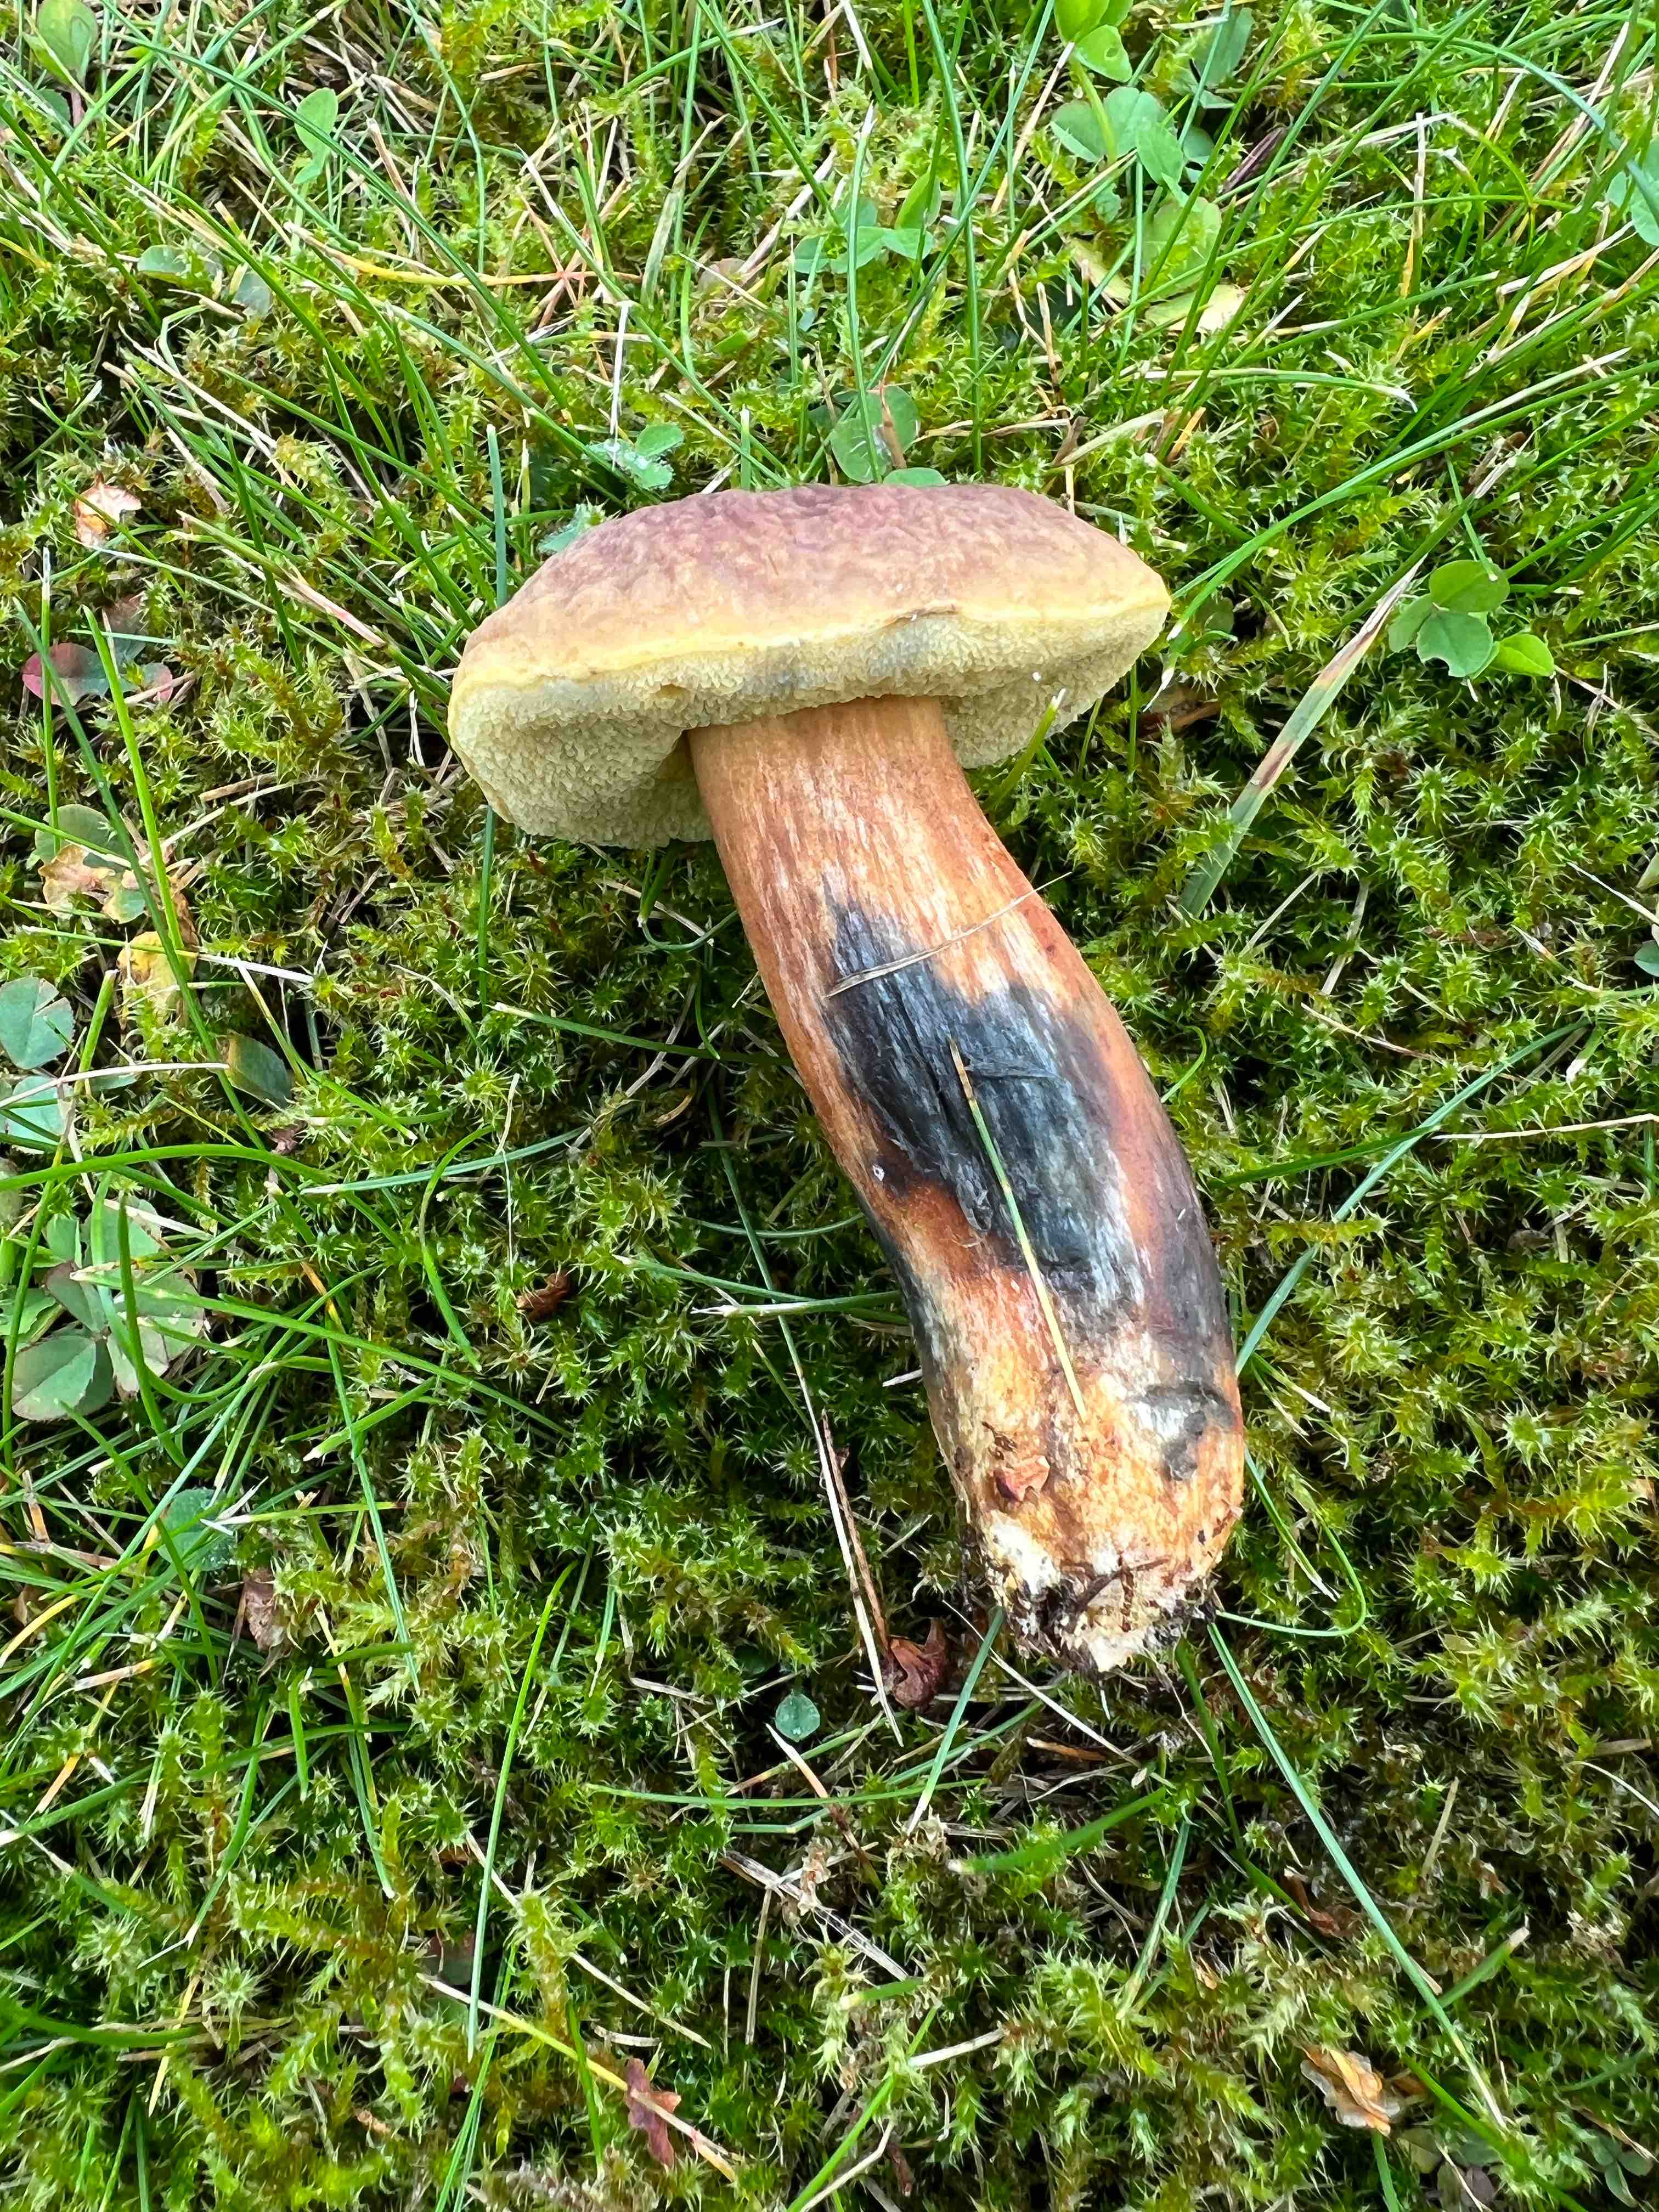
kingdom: Fungi
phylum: Basidiomycota
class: Agaricomycetes
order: Boletales
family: Boletaceae
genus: Hortiboletus
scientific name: Hortiboletus bubalinus
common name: aurora-rørhat
